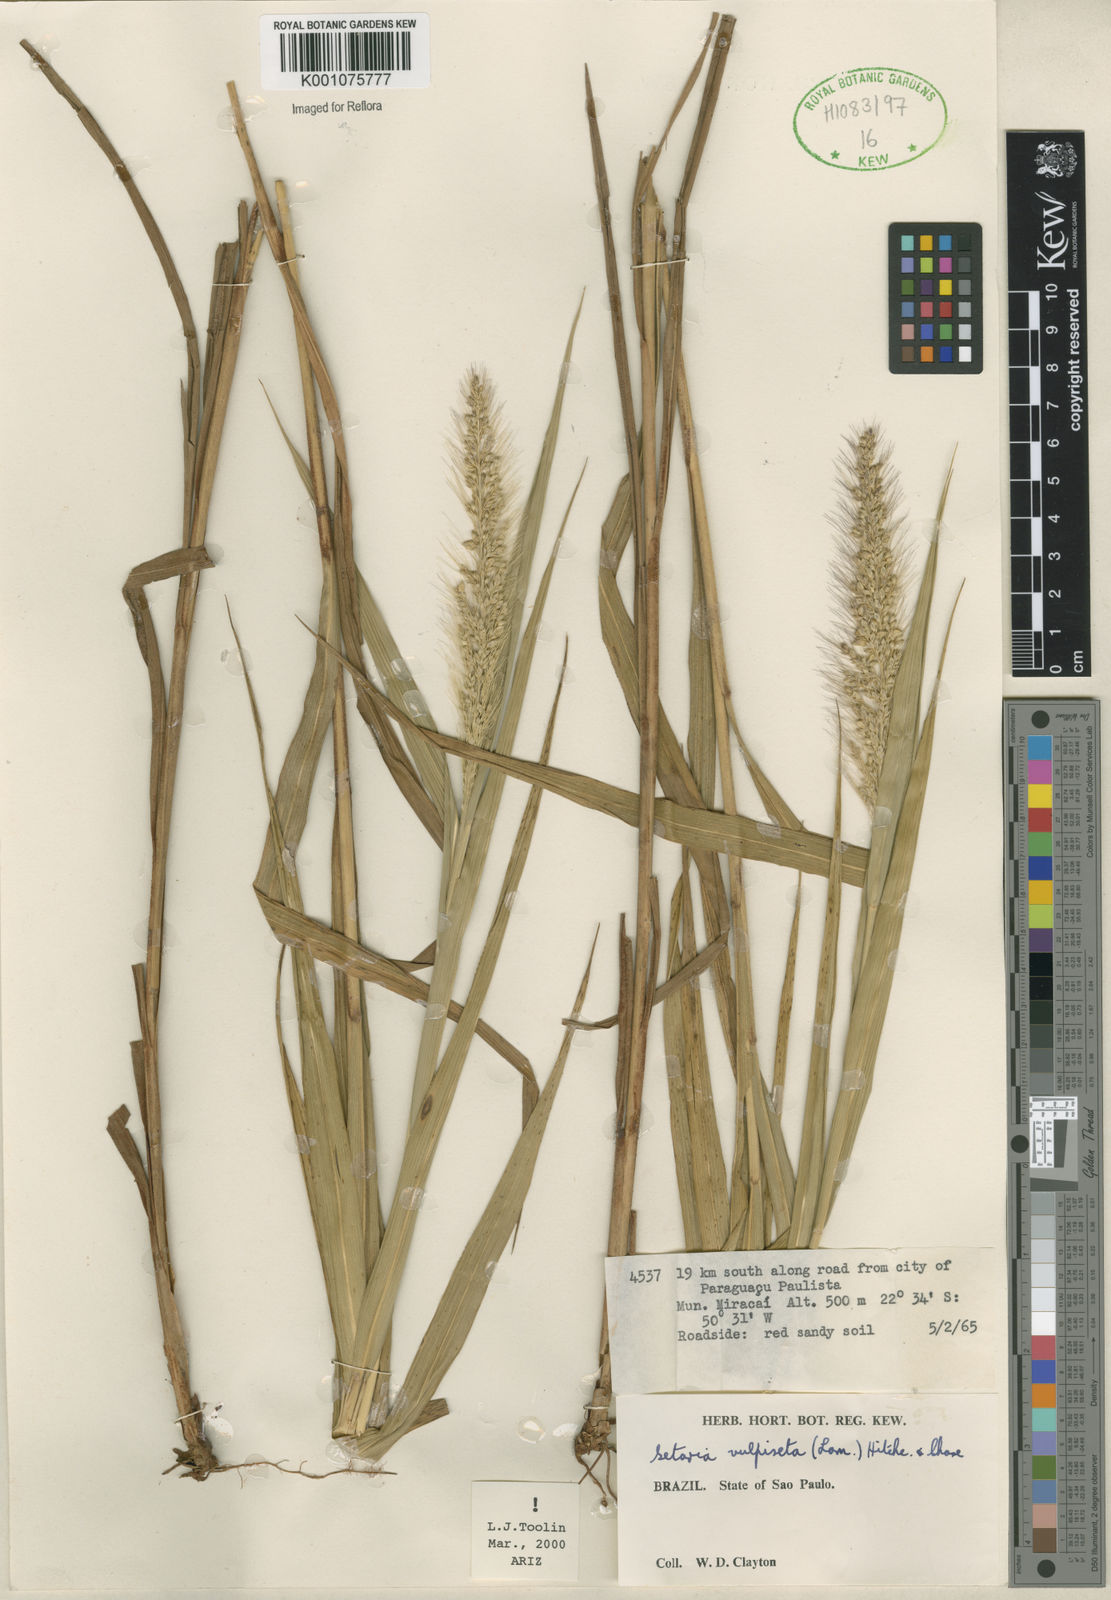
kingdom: Plantae
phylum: Tracheophyta
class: Liliopsida
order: Poales
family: Poaceae
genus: Setaria
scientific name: Setaria vulpiseta
